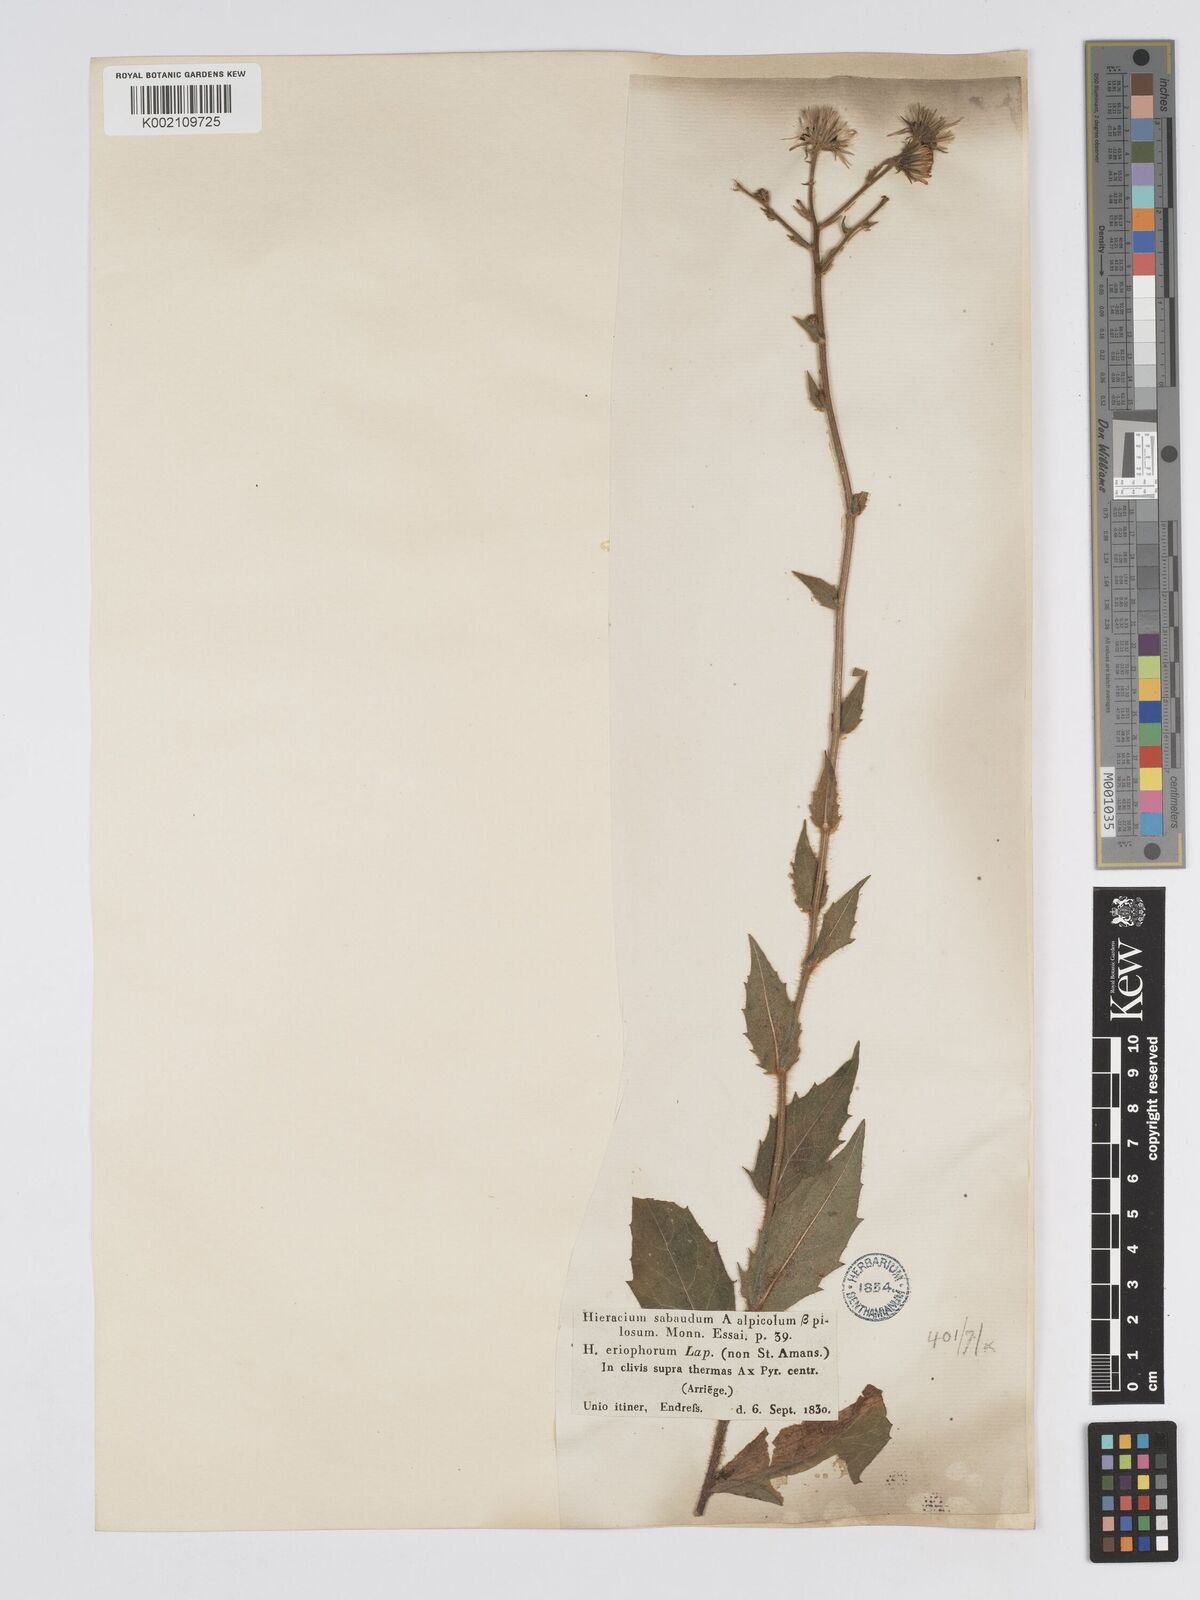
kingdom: Plantae
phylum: Tracheophyta
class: Magnoliopsida
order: Asterales
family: Asteraceae
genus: Hieracium
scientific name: Hieracium
